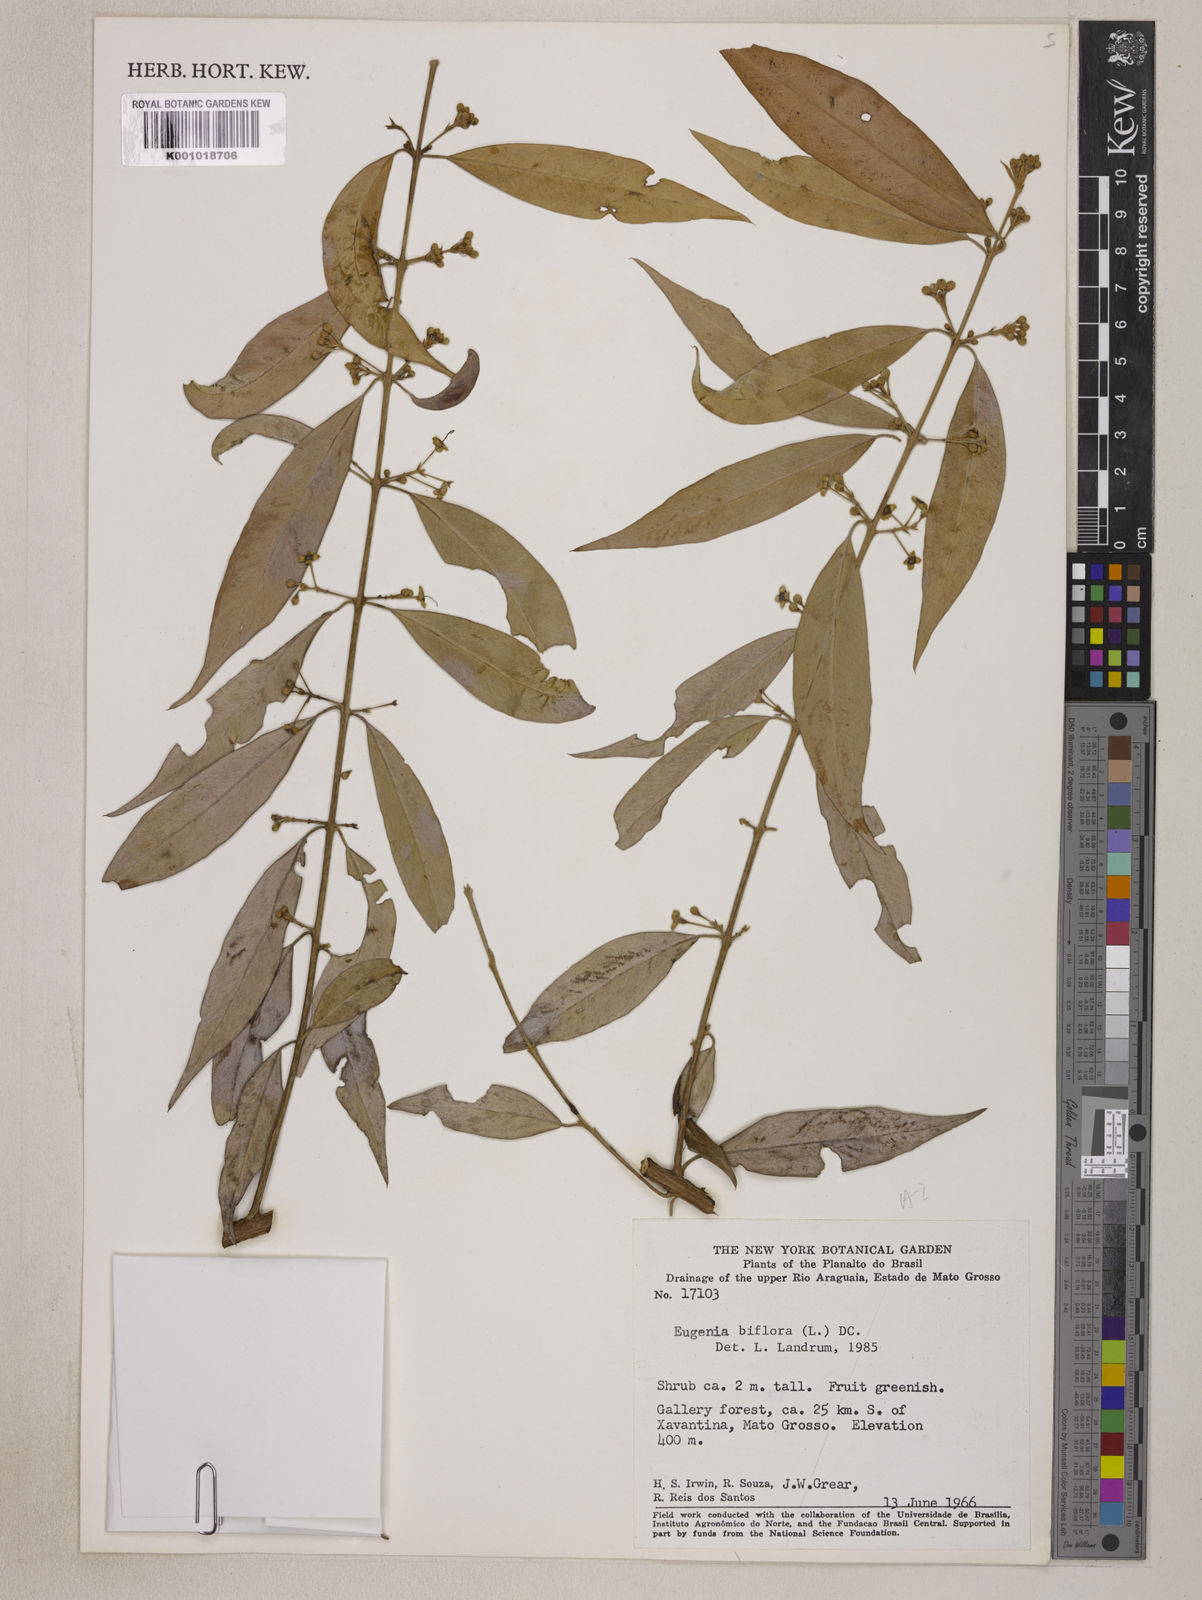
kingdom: Plantae
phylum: Tracheophyta
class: Magnoliopsida
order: Myrtales
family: Myrtaceae
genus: Eugenia
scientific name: Eugenia biflora
